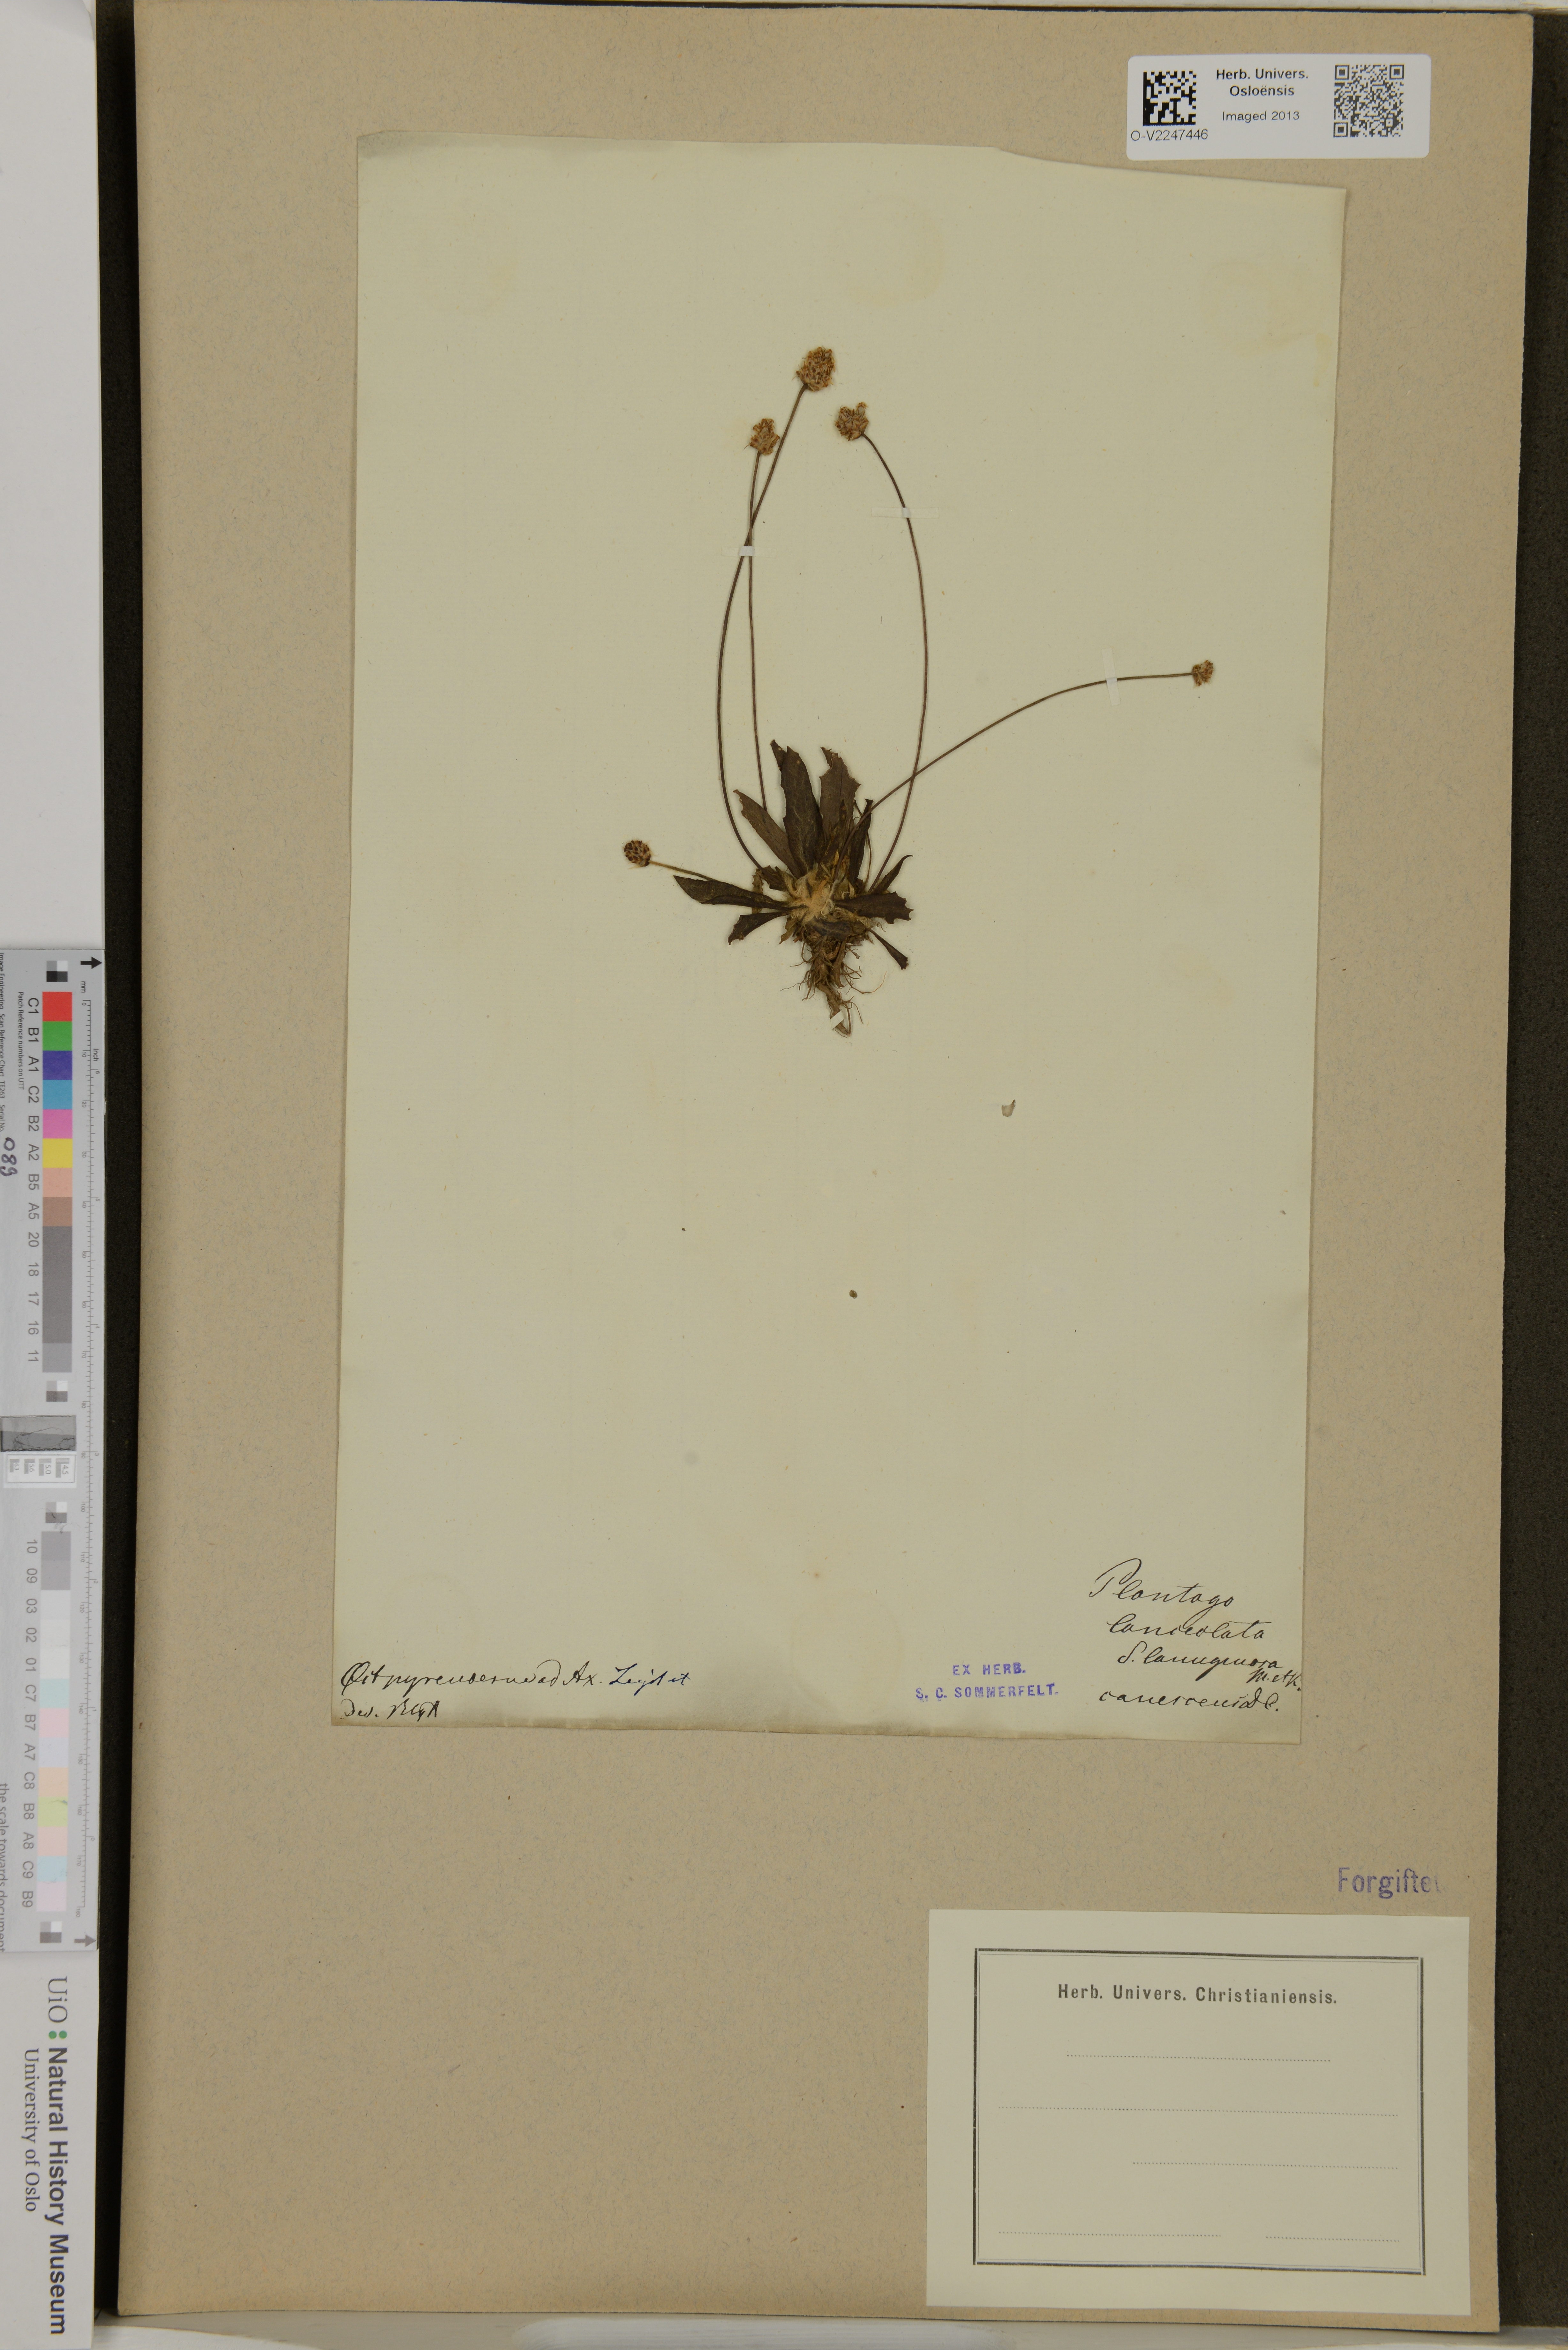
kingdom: Plantae
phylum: Tracheophyta
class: Magnoliopsida
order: Lamiales
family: Plantaginaceae
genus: Plantago
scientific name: Plantago lanceolata
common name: Ribwort plantain
